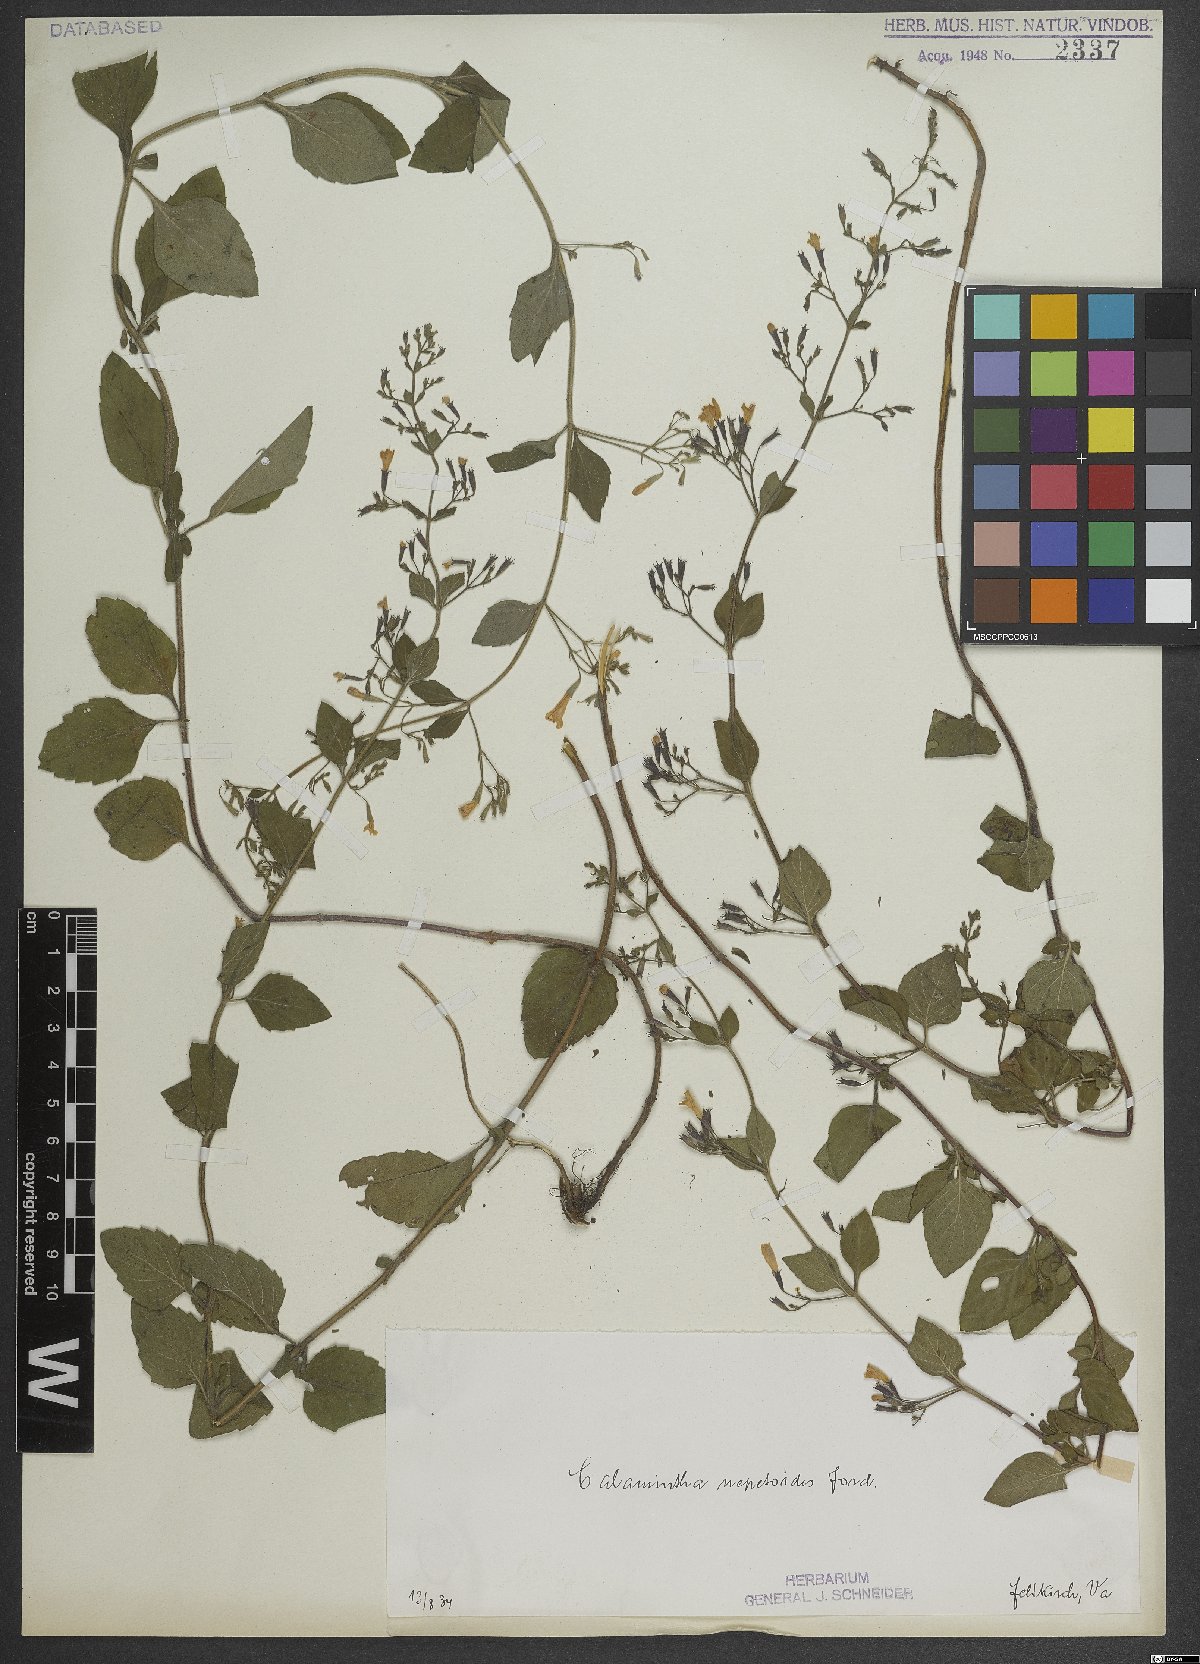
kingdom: Plantae
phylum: Tracheophyta
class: Magnoliopsida
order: Lamiales
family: Lamiaceae
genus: Clinopodium
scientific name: Clinopodium nepeta
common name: Lesser calamint
